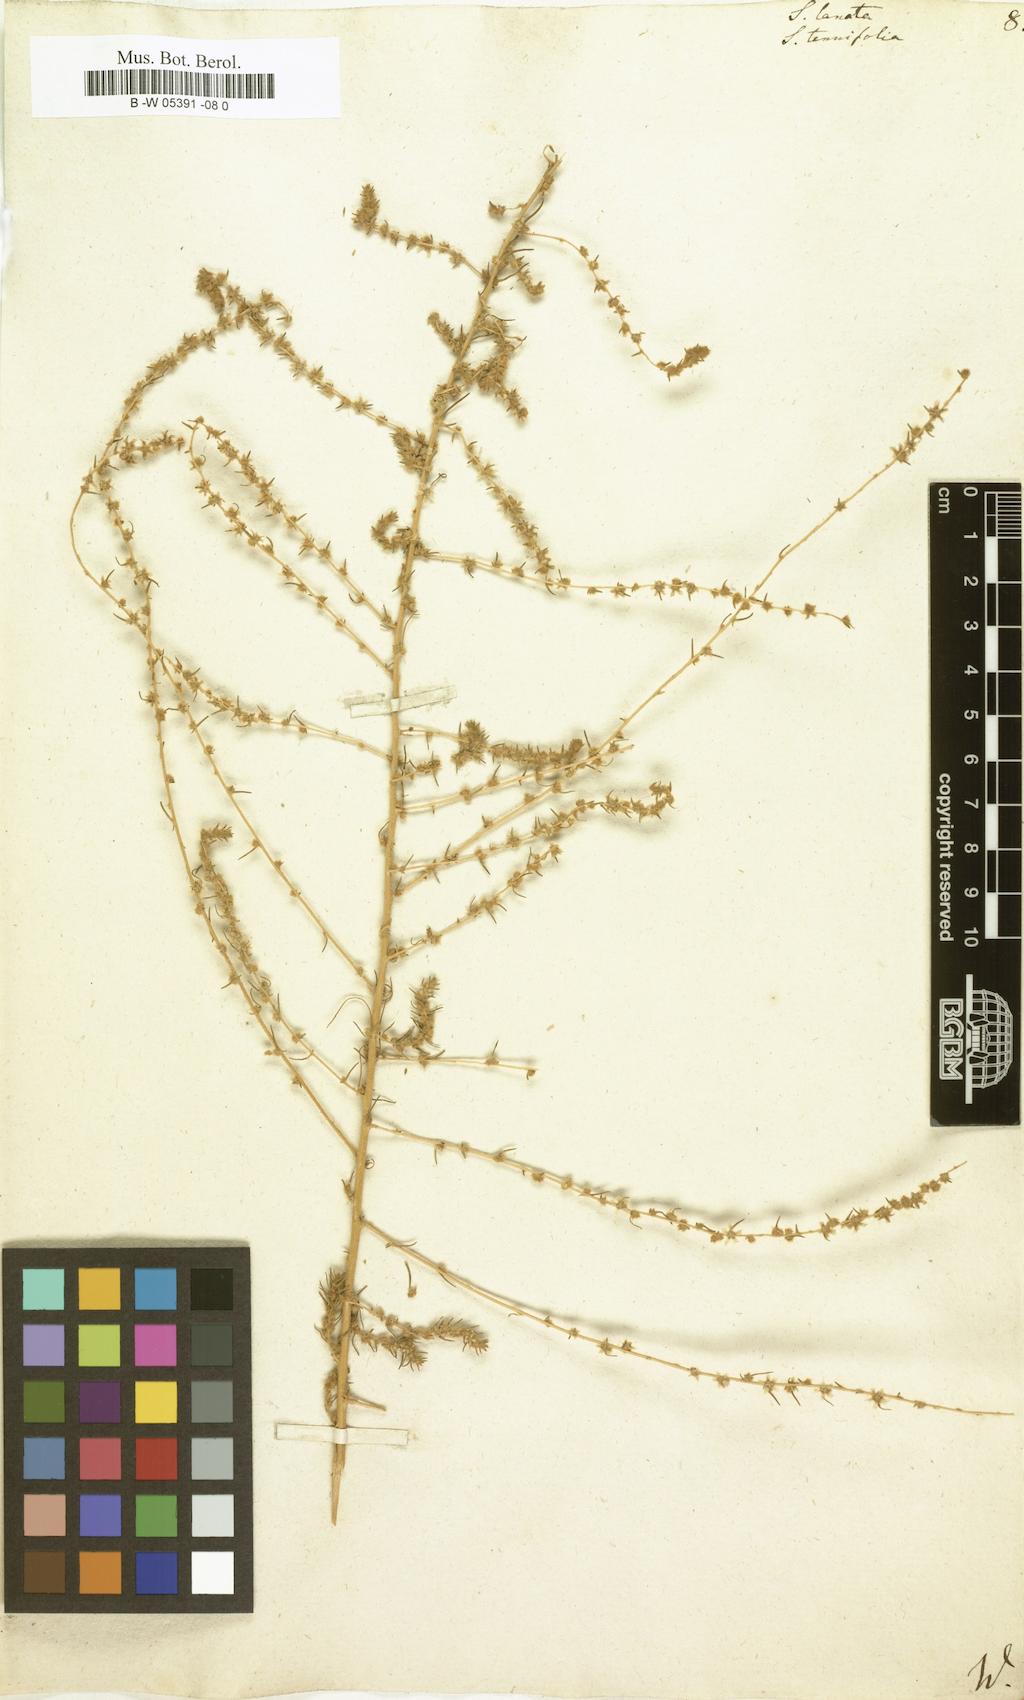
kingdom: Plantae
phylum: Tracheophyta
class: Magnoliopsida
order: Caryophyllales
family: Amaranthaceae
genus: Climacoptera
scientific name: Climacoptera lanata
